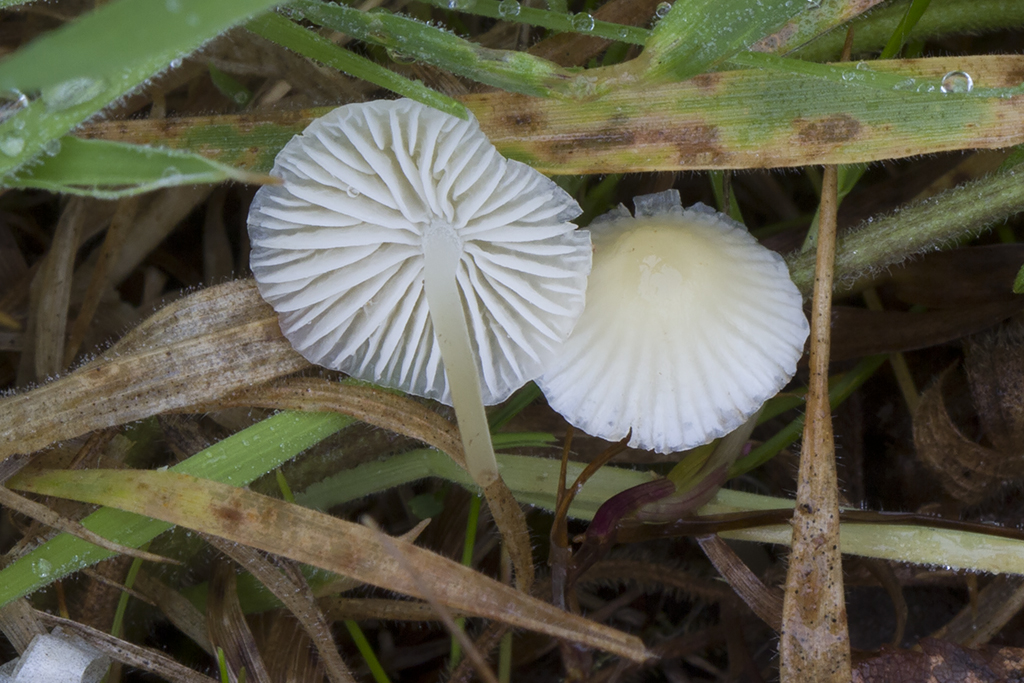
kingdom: Fungi
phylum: Basidiomycota
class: Agaricomycetes
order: Agaricales
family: Mycenaceae
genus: Atheniella
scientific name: Atheniella flavoalba
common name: gulhvid huesvamp
